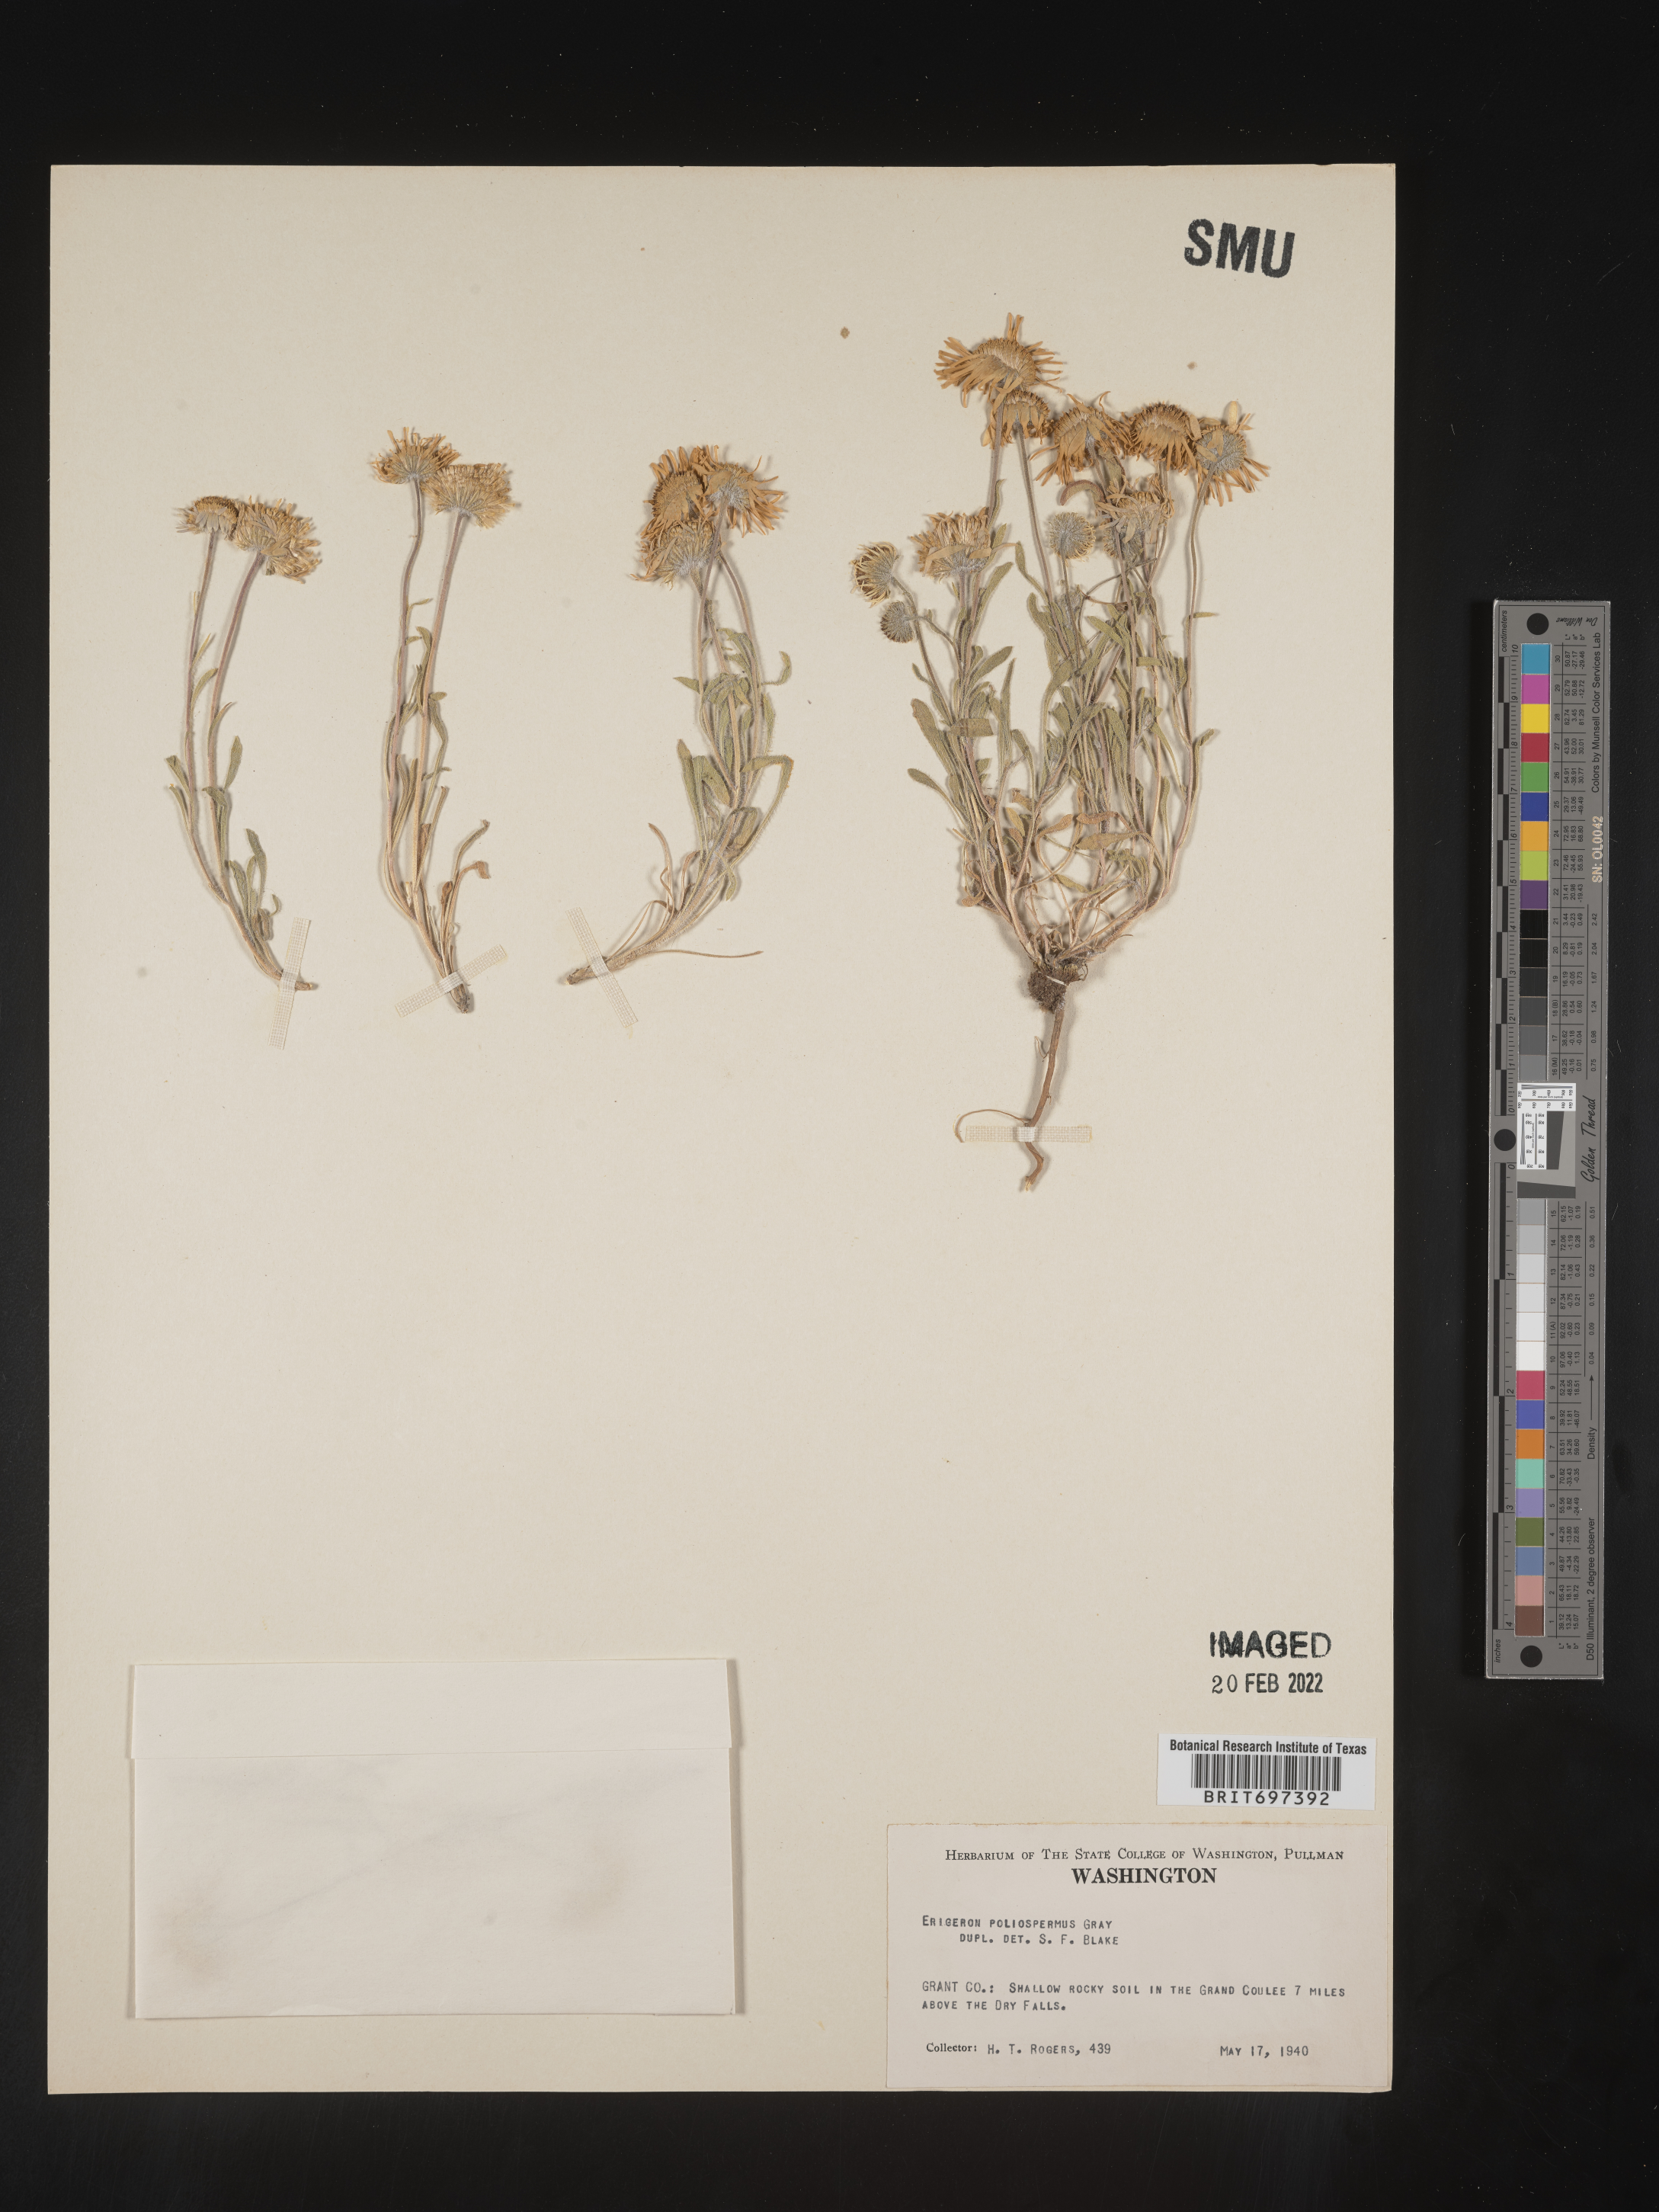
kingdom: Plantae
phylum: Tracheophyta
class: Magnoliopsida
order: Asterales
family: Asteraceae
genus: Erigeron
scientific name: Erigeron poliospermus
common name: Cushion fleabane
